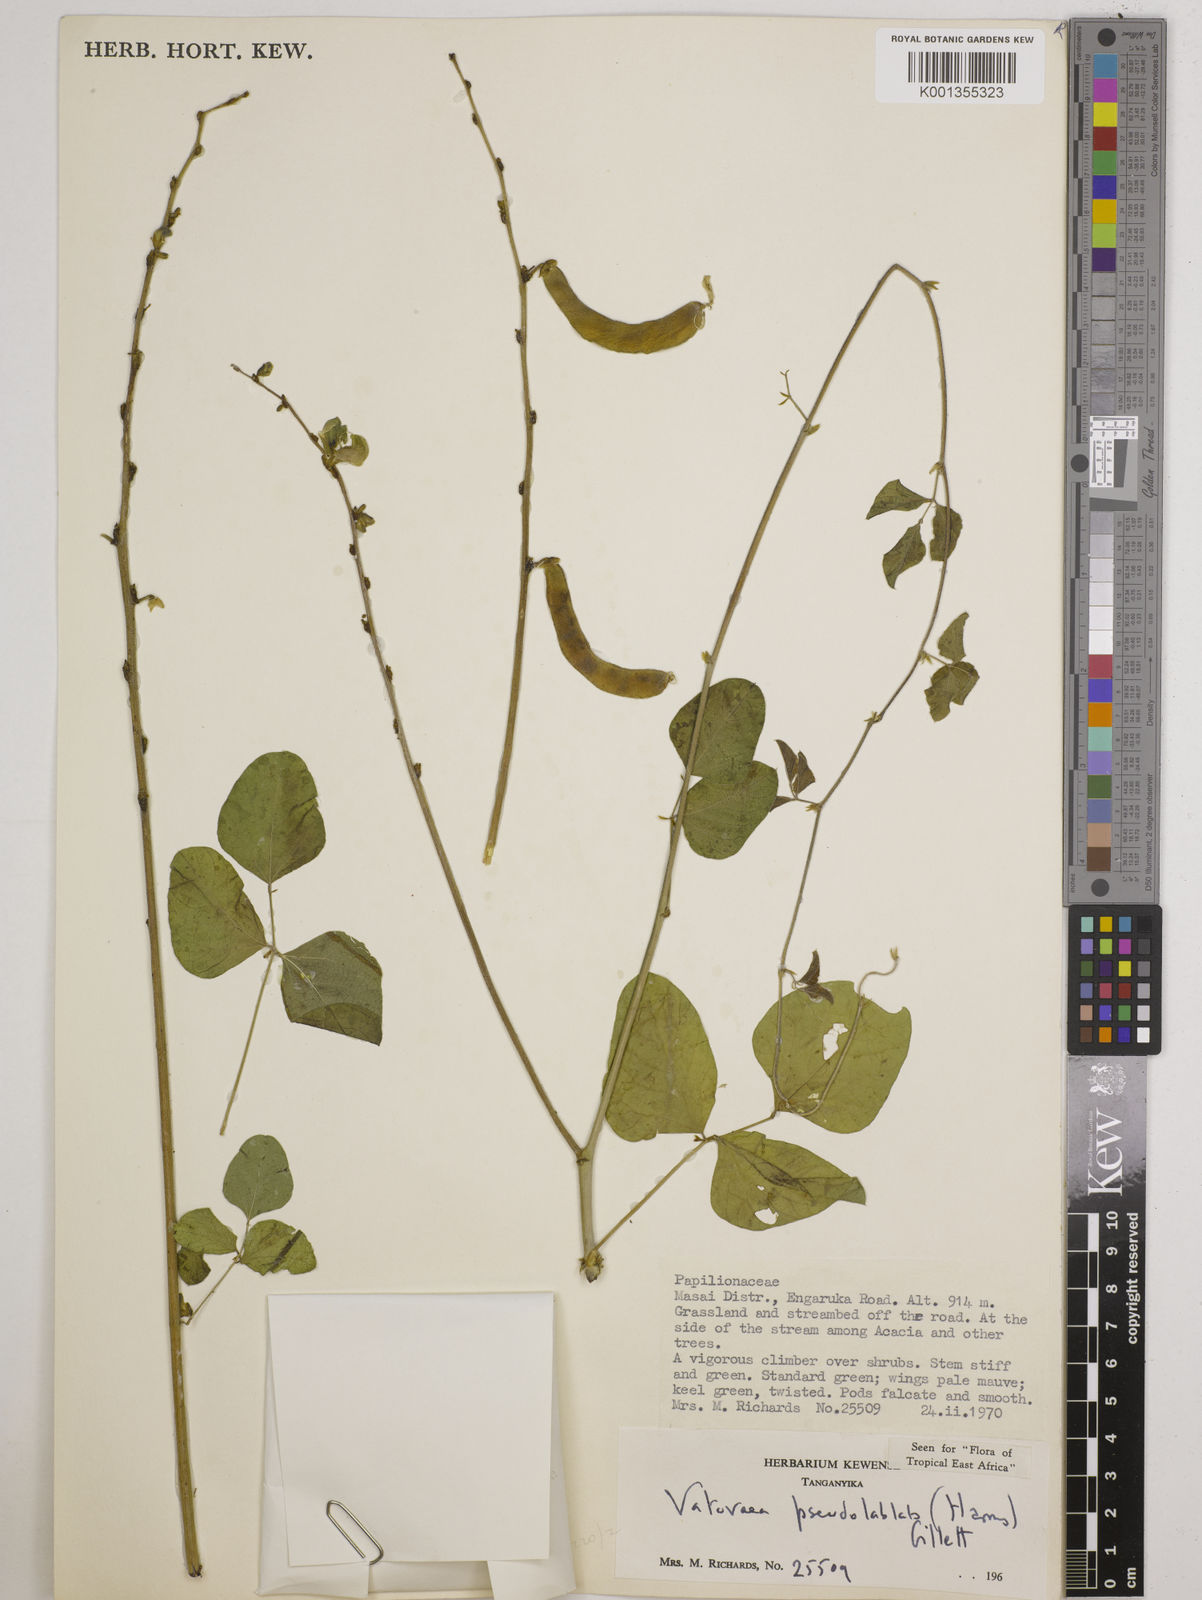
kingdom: Plantae
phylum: Tracheophyta
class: Magnoliopsida
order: Fabales
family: Fabaceae
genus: Vatovaea
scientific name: Vatovaea pseudolablab
